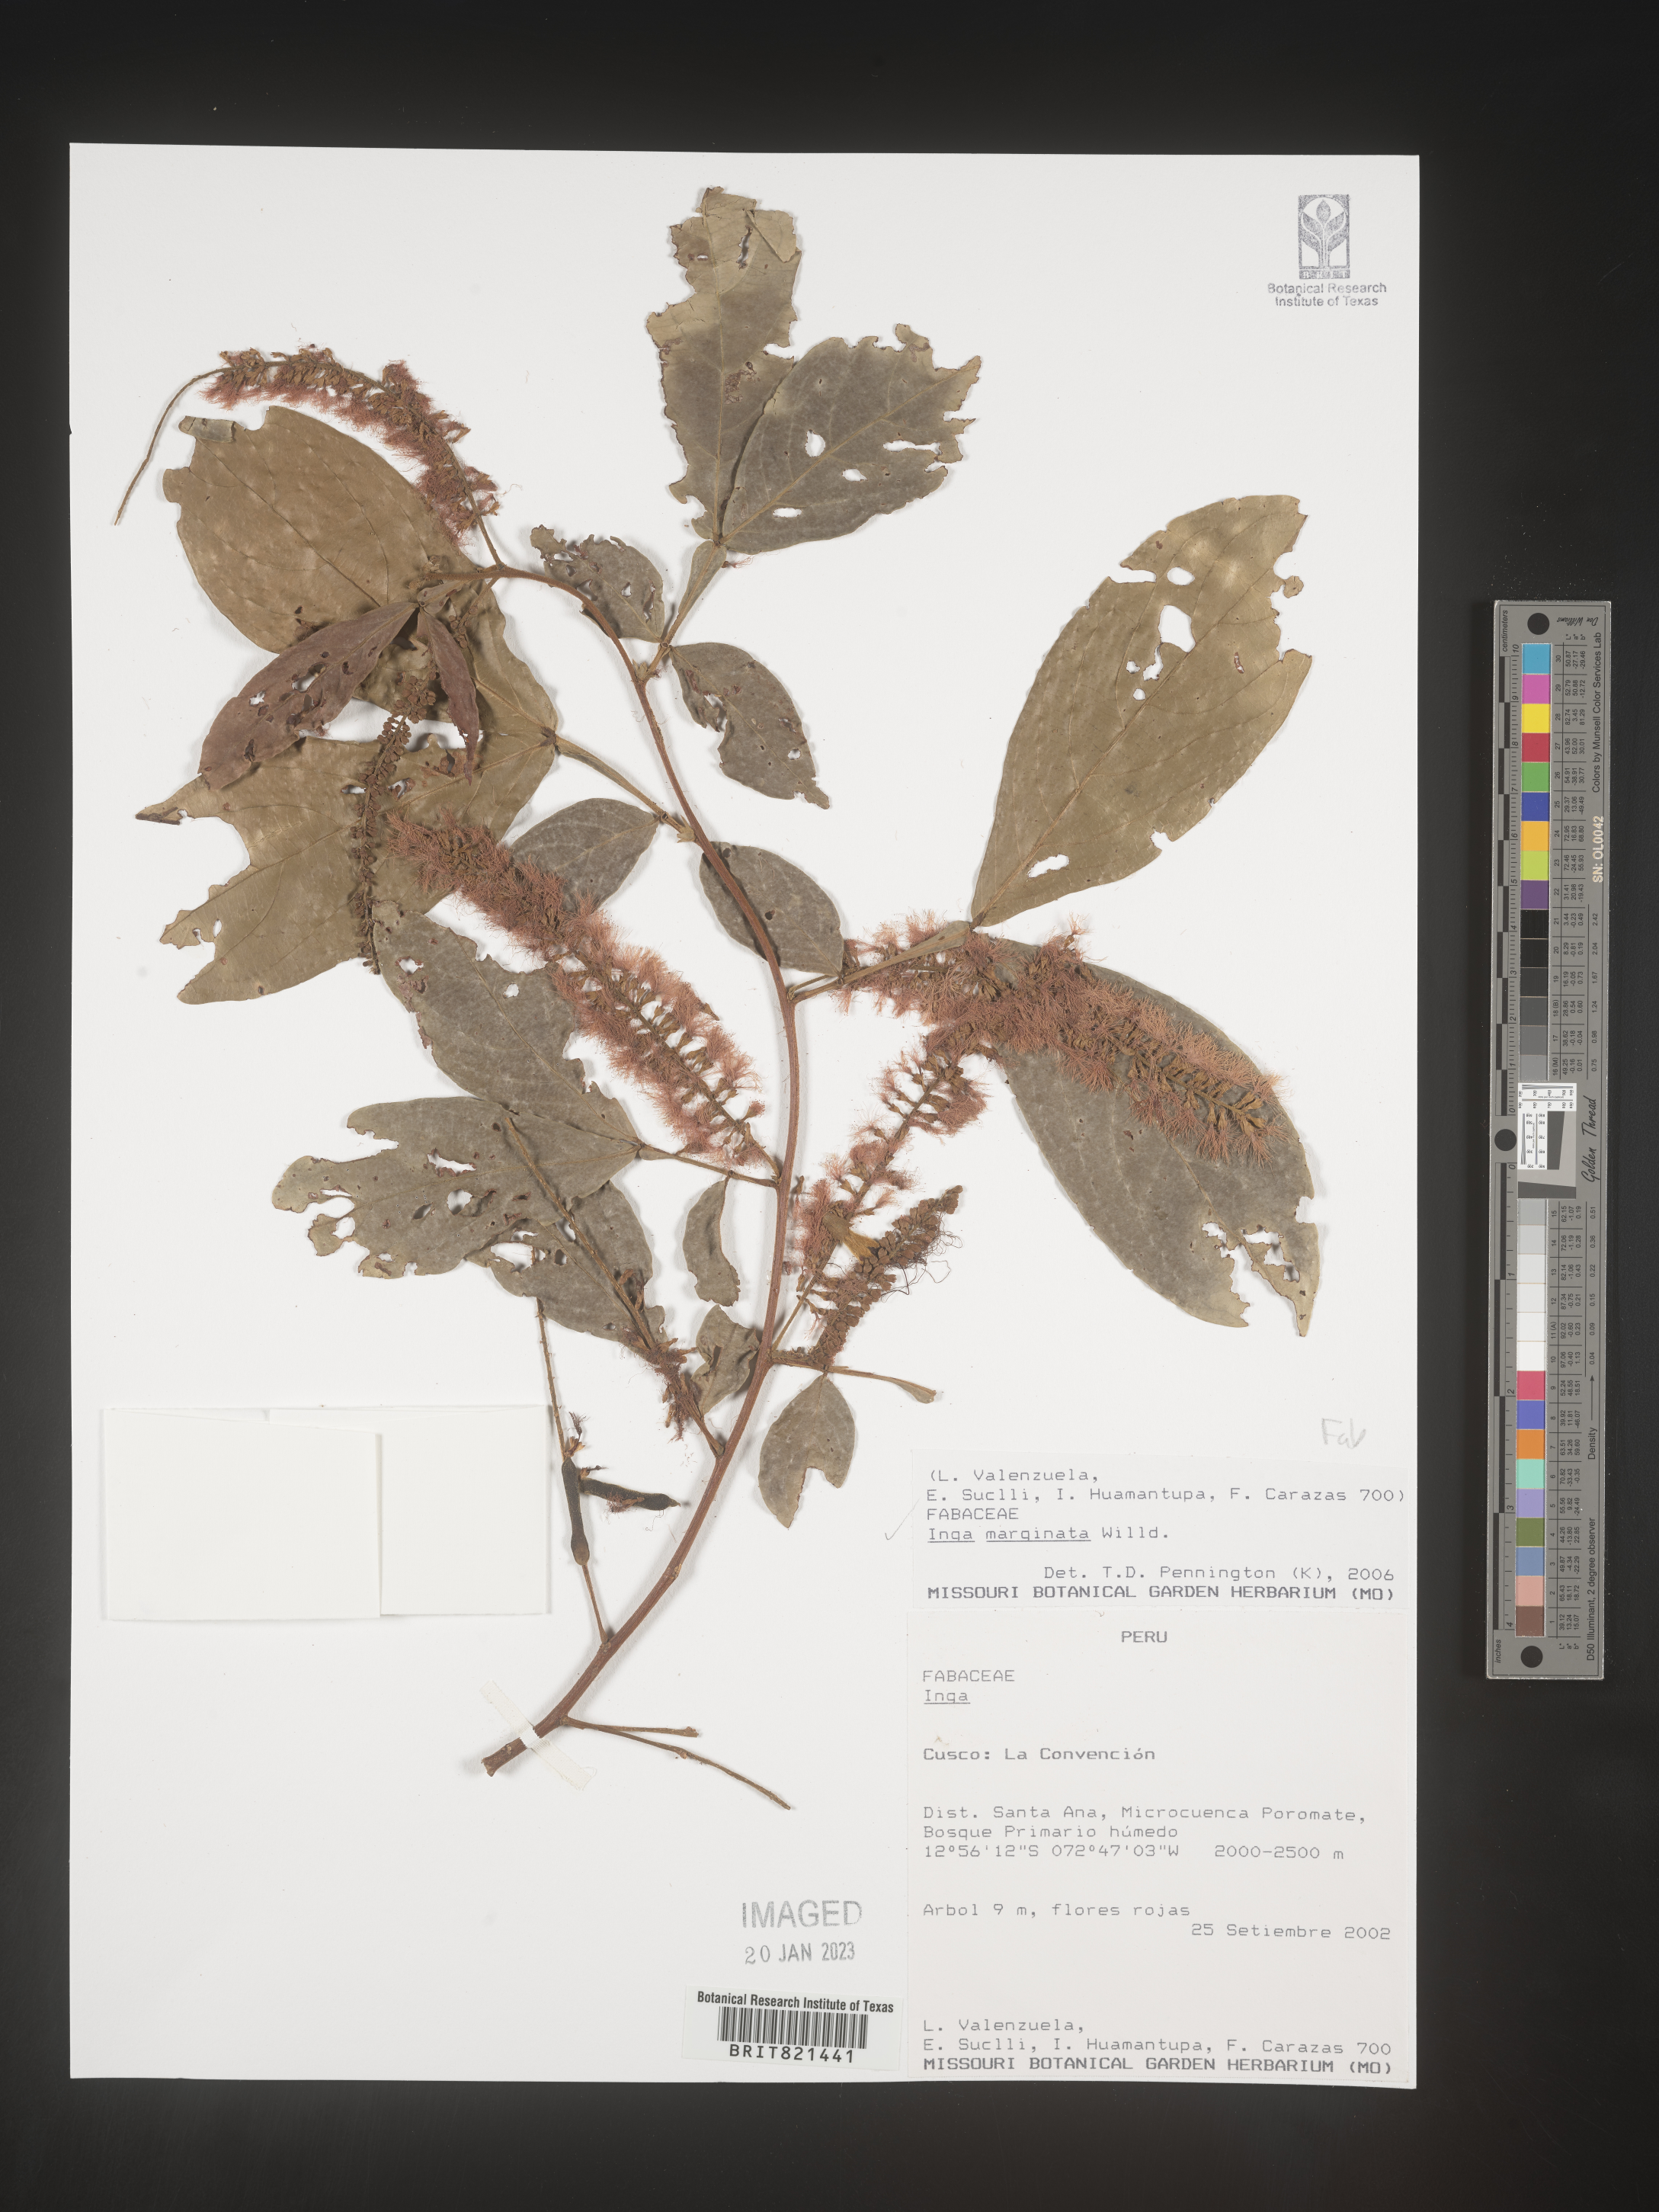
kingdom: Plantae
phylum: Tracheophyta
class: Magnoliopsida
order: Fabales
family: Fabaceae
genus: Inga
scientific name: Inga
